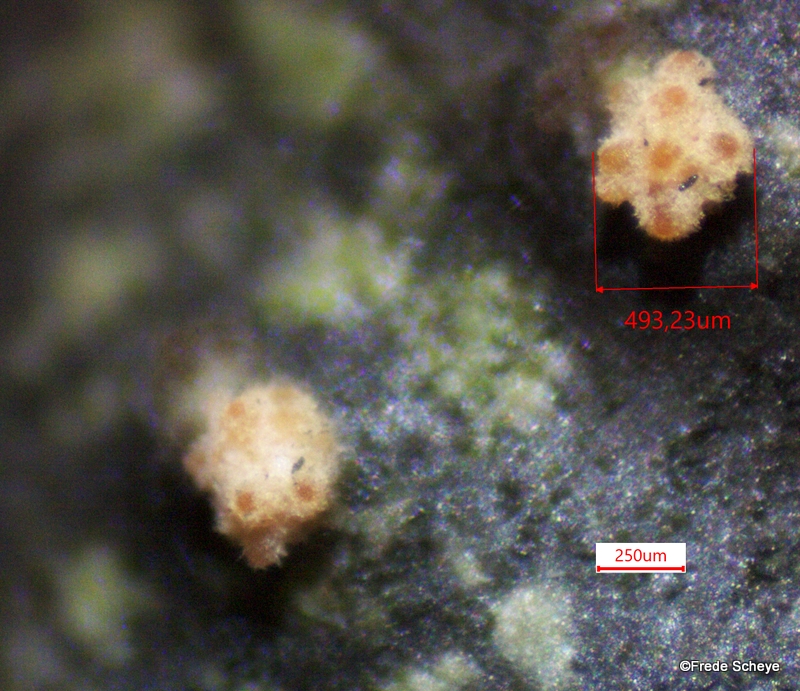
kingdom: Fungi
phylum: Ascomycota
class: Sordariomycetes
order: Hypocreales
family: Flammocladiellaceae
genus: Flammocladiella
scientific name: Flammocladiella decora
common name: kulvulkan-cinnobersvamp
